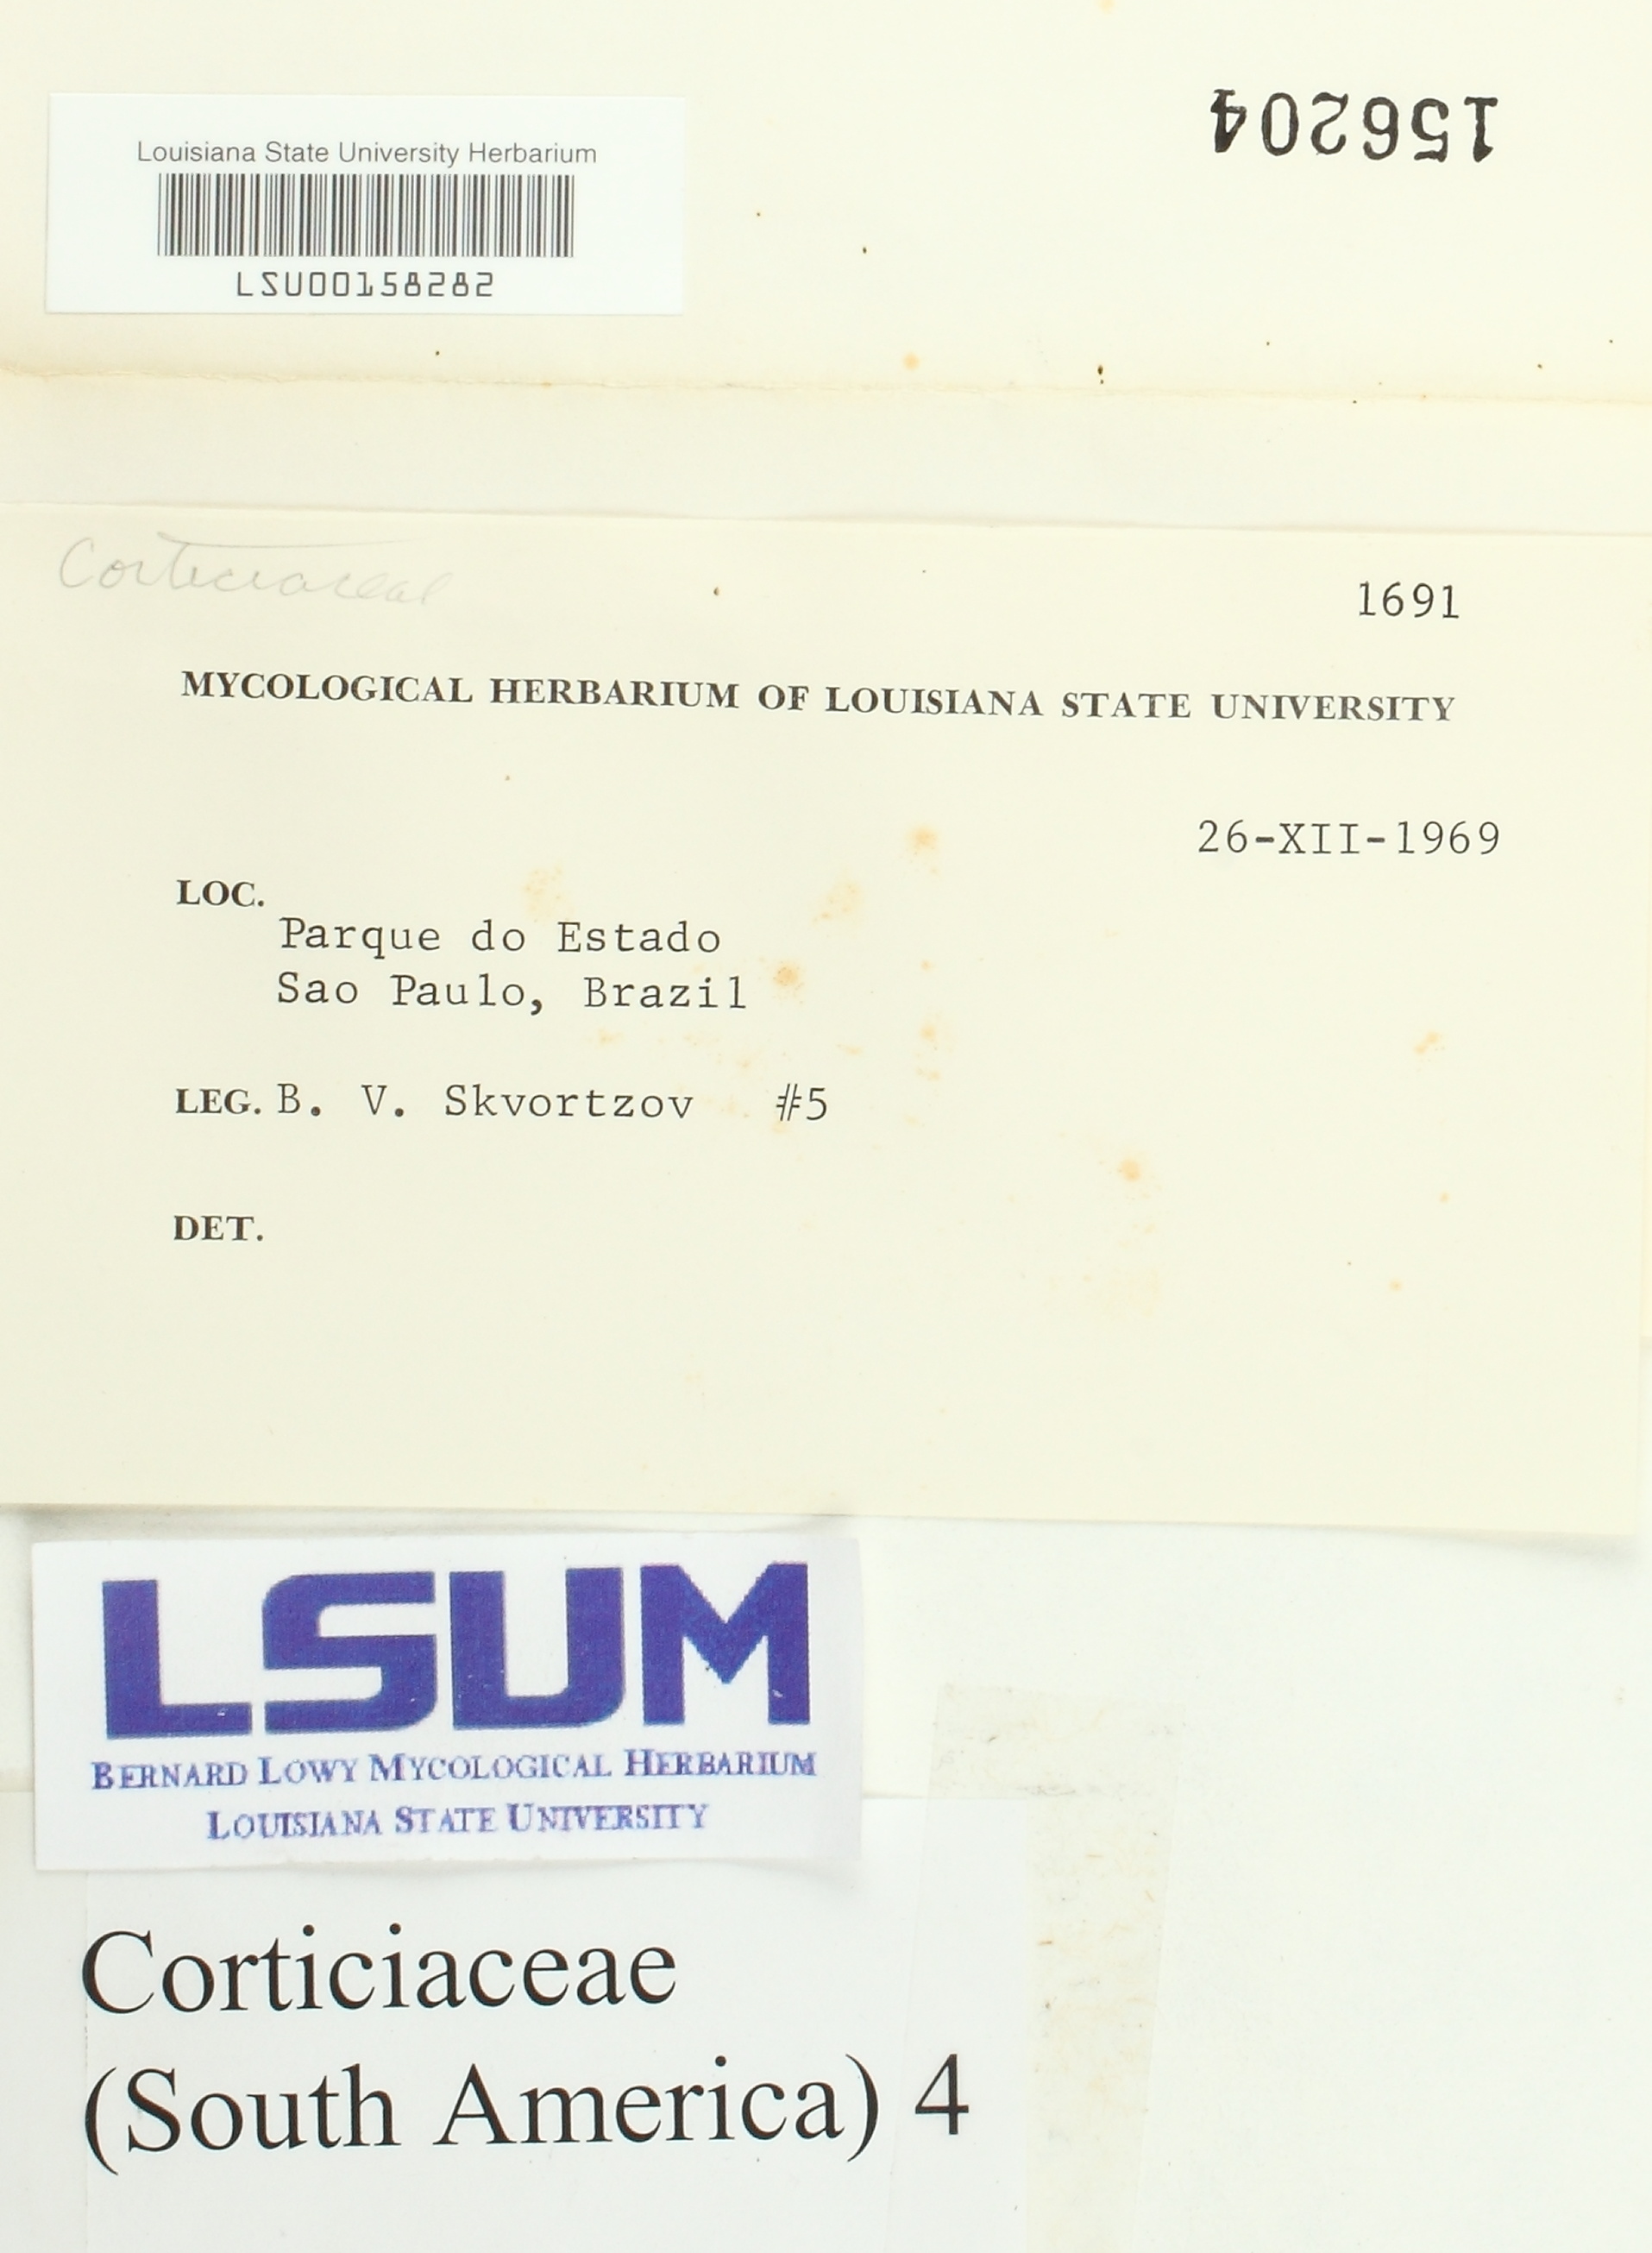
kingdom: Fungi
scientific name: Fungi
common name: Fungi
